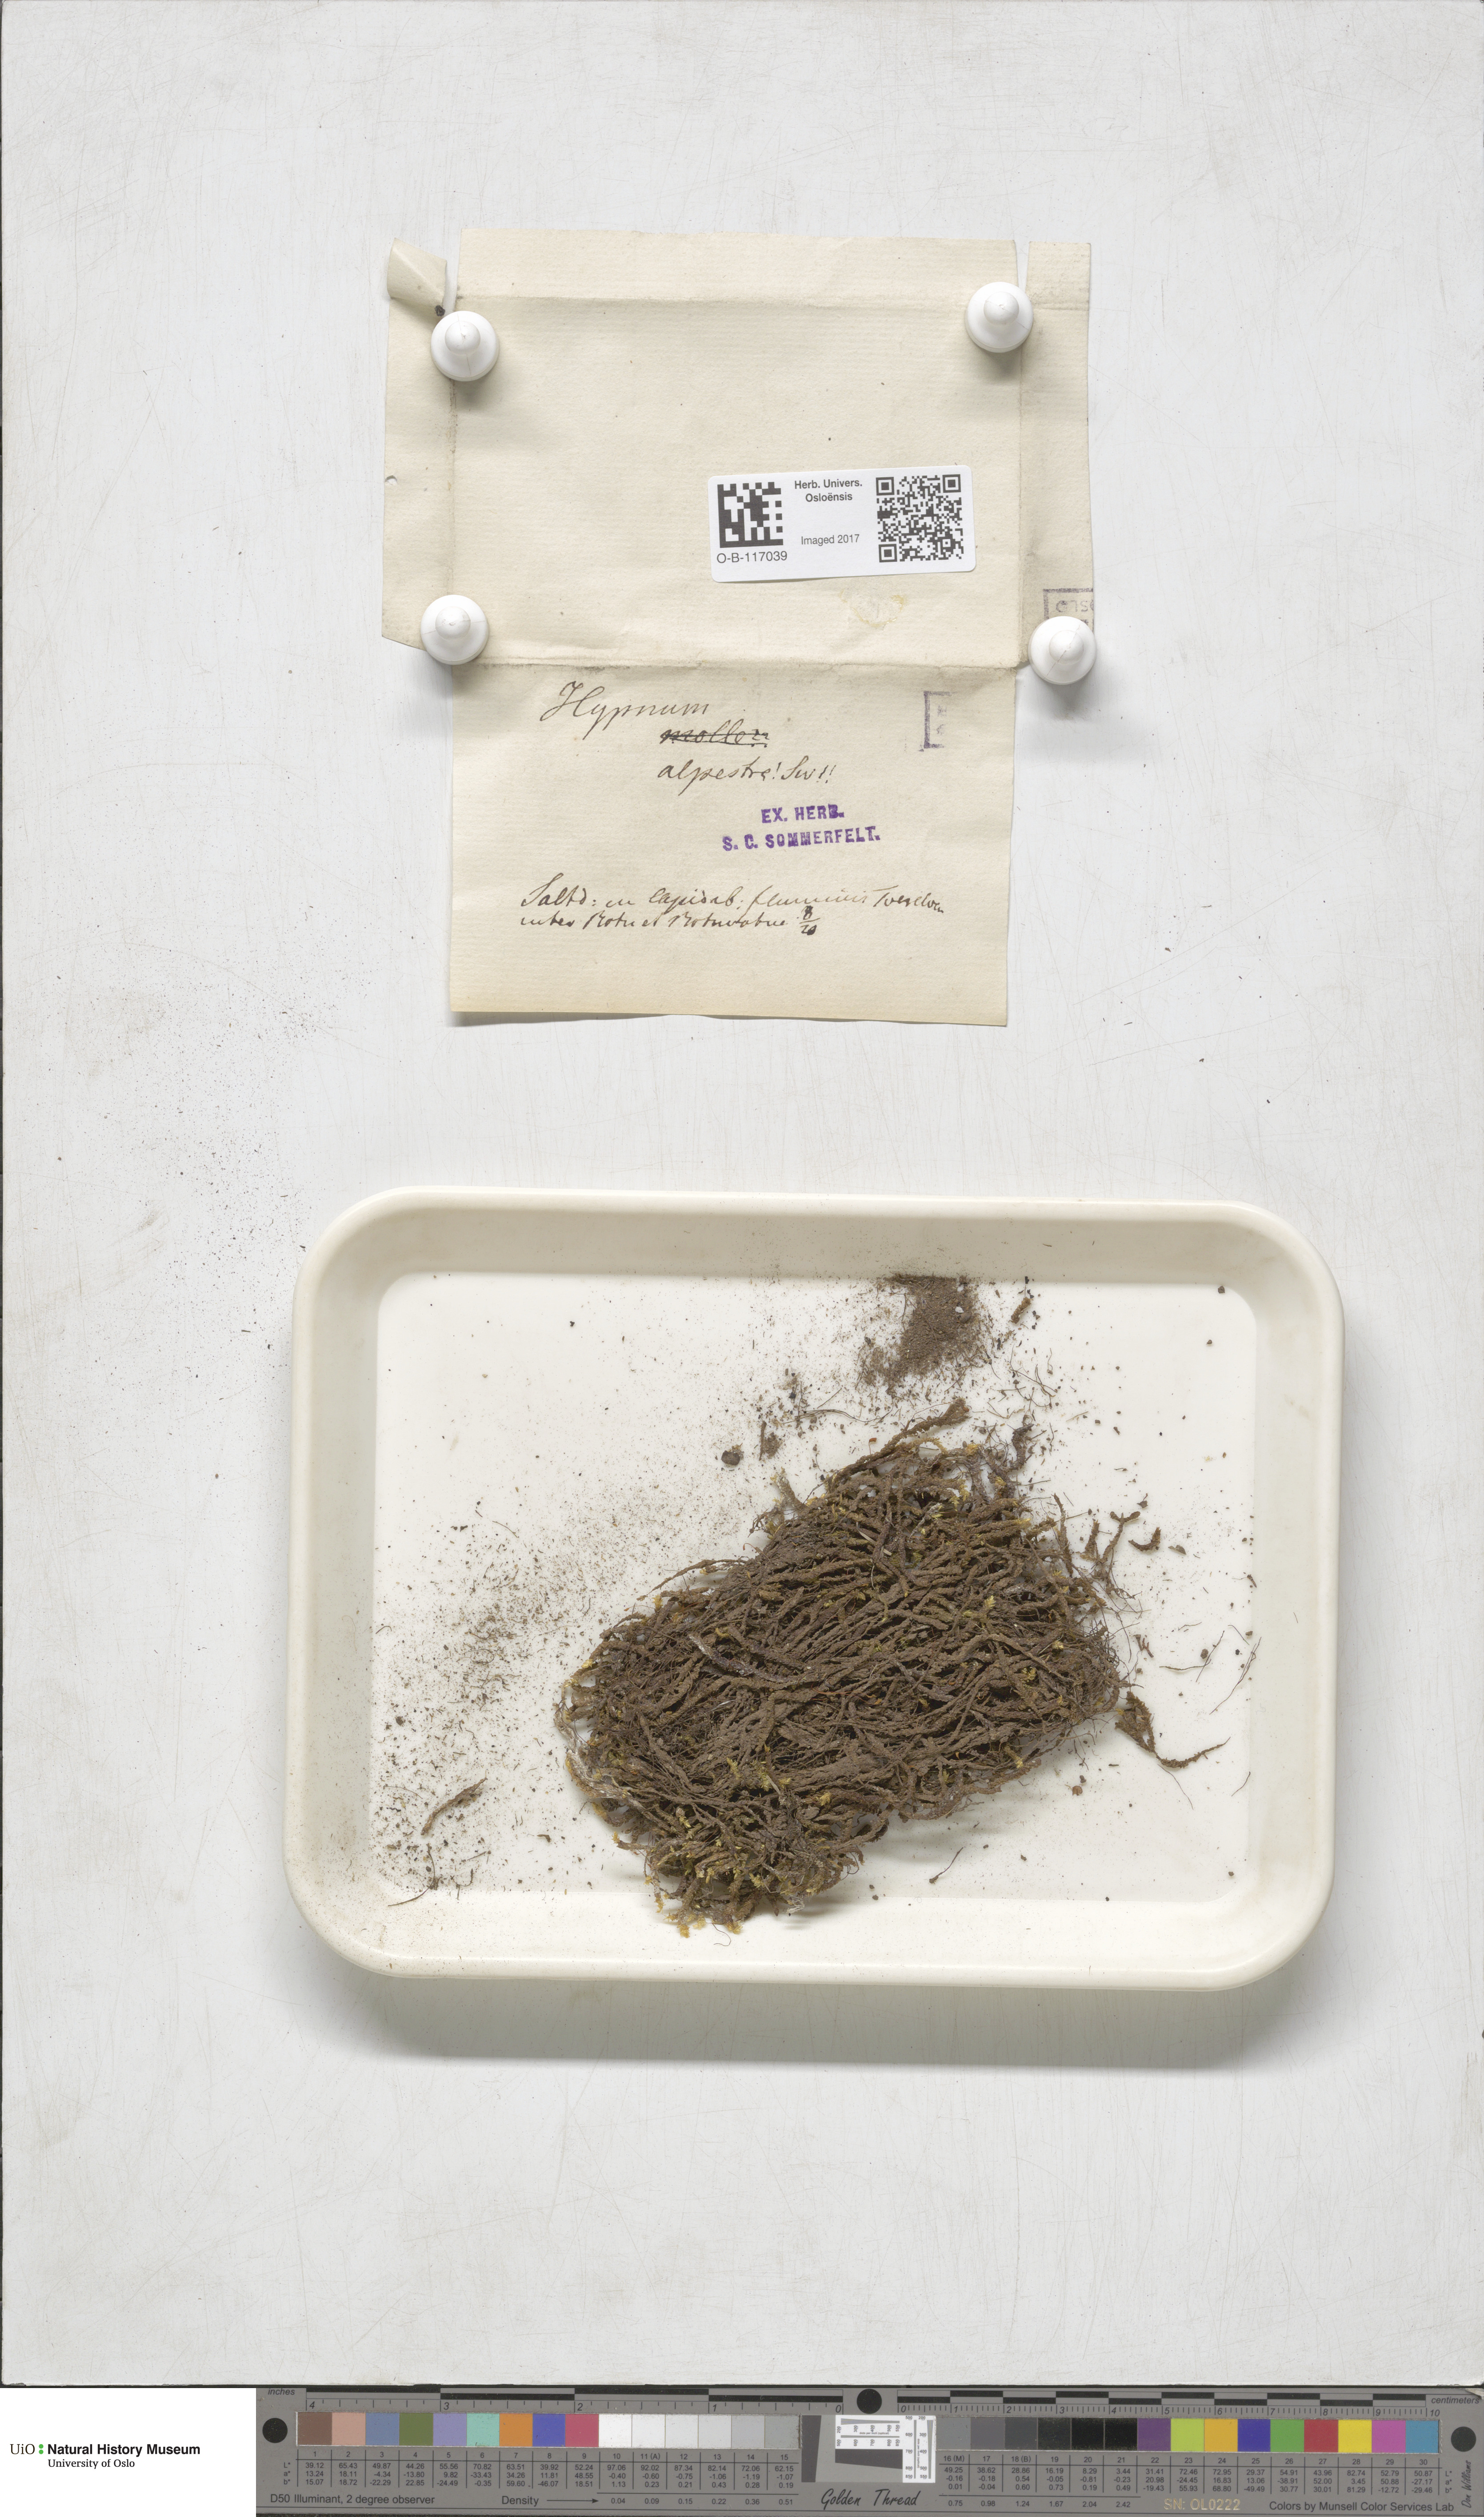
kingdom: Plantae
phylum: Bryophyta
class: Bryopsida
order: Hypnales
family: Amblystegiaceae
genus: Platyhypnum
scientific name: Platyhypnum alpestre
